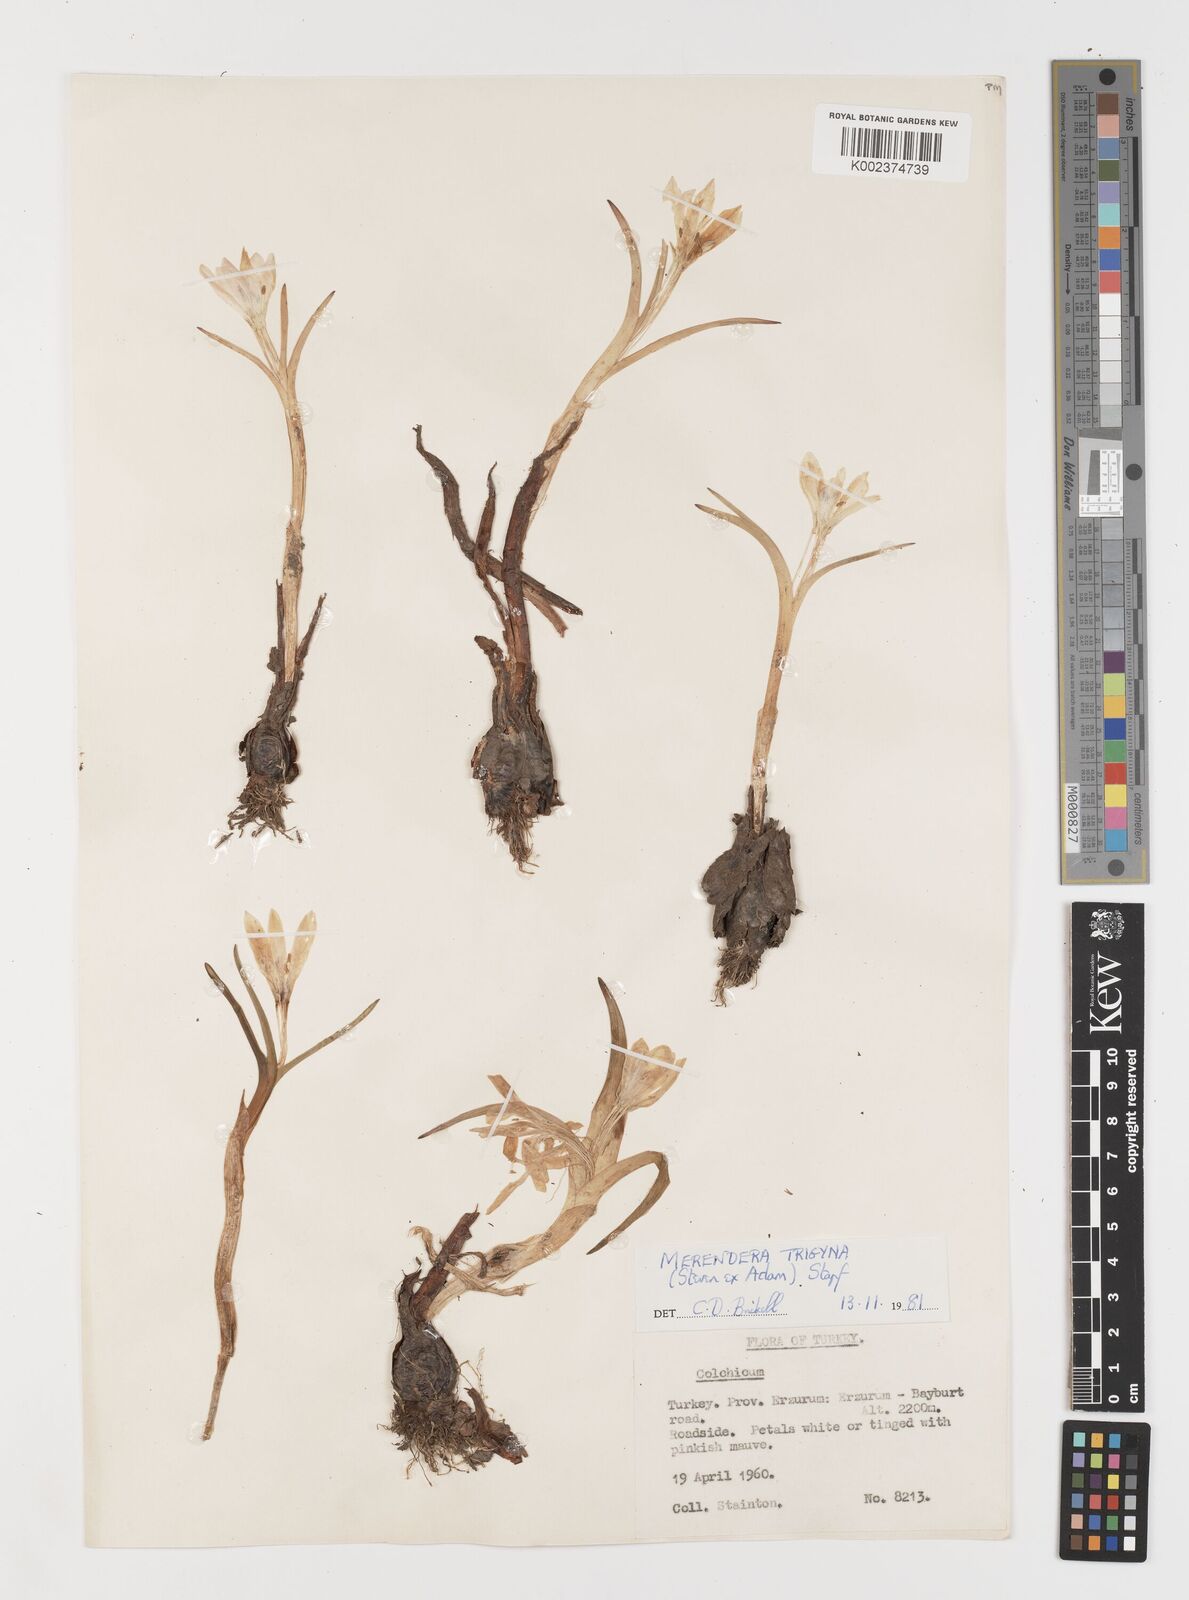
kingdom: Plantae
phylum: Tracheophyta
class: Liliopsida
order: Liliales
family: Colchicaceae
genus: Colchicum
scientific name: Colchicum trigynum
